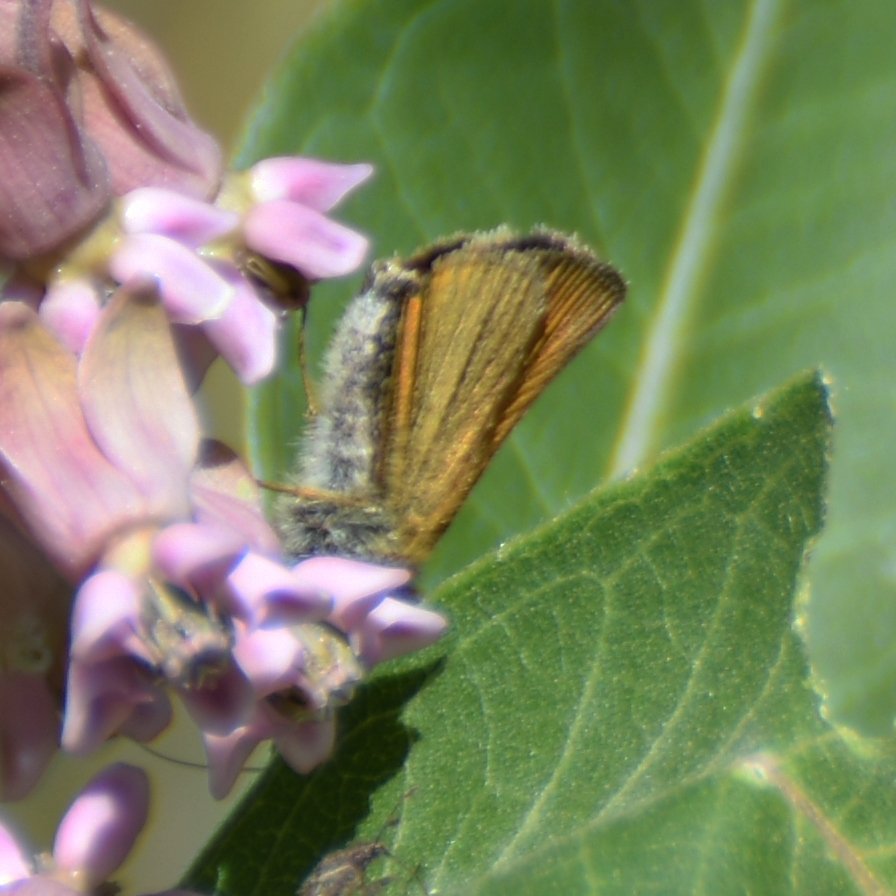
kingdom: Animalia
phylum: Arthropoda
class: Insecta
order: Lepidoptera
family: Hesperiidae
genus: Thymelicus
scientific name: Thymelicus lineola
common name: European Skipper
